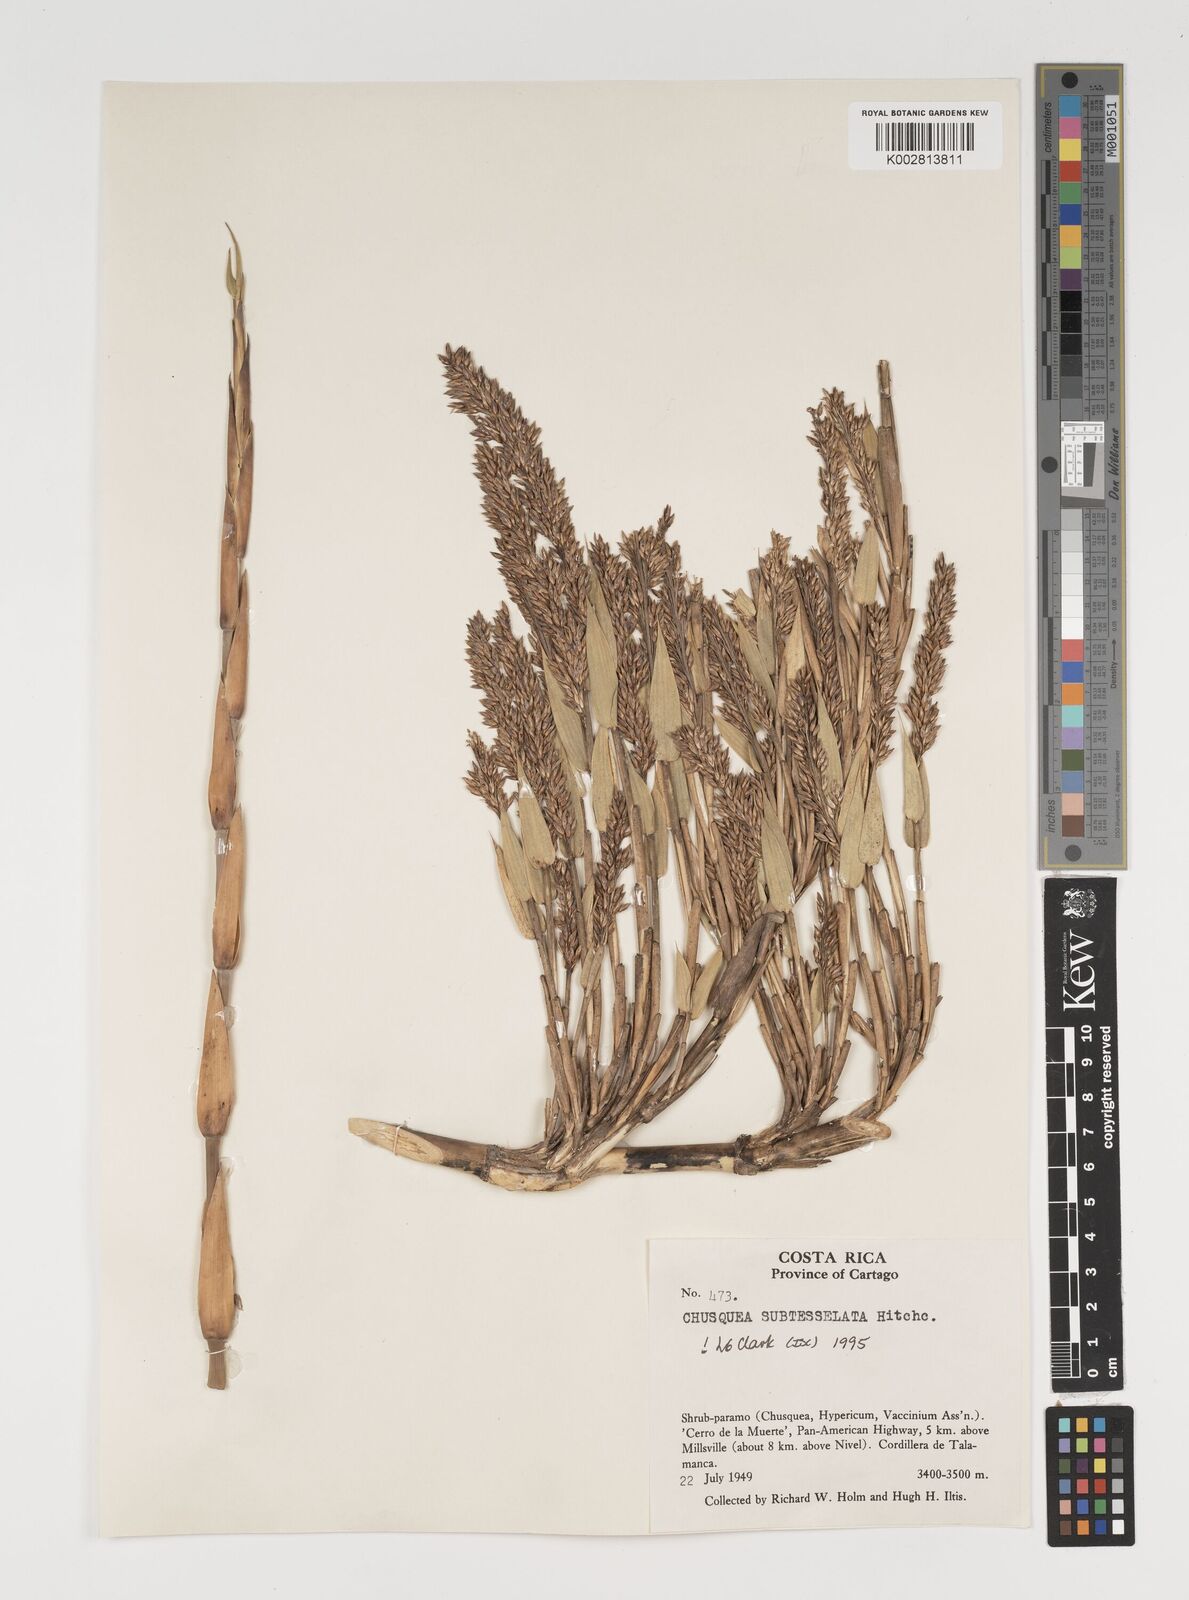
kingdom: Plantae
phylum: Tracheophyta
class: Liliopsida
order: Poales
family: Poaceae
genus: Chusquea
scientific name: Chusquea subtessellata
